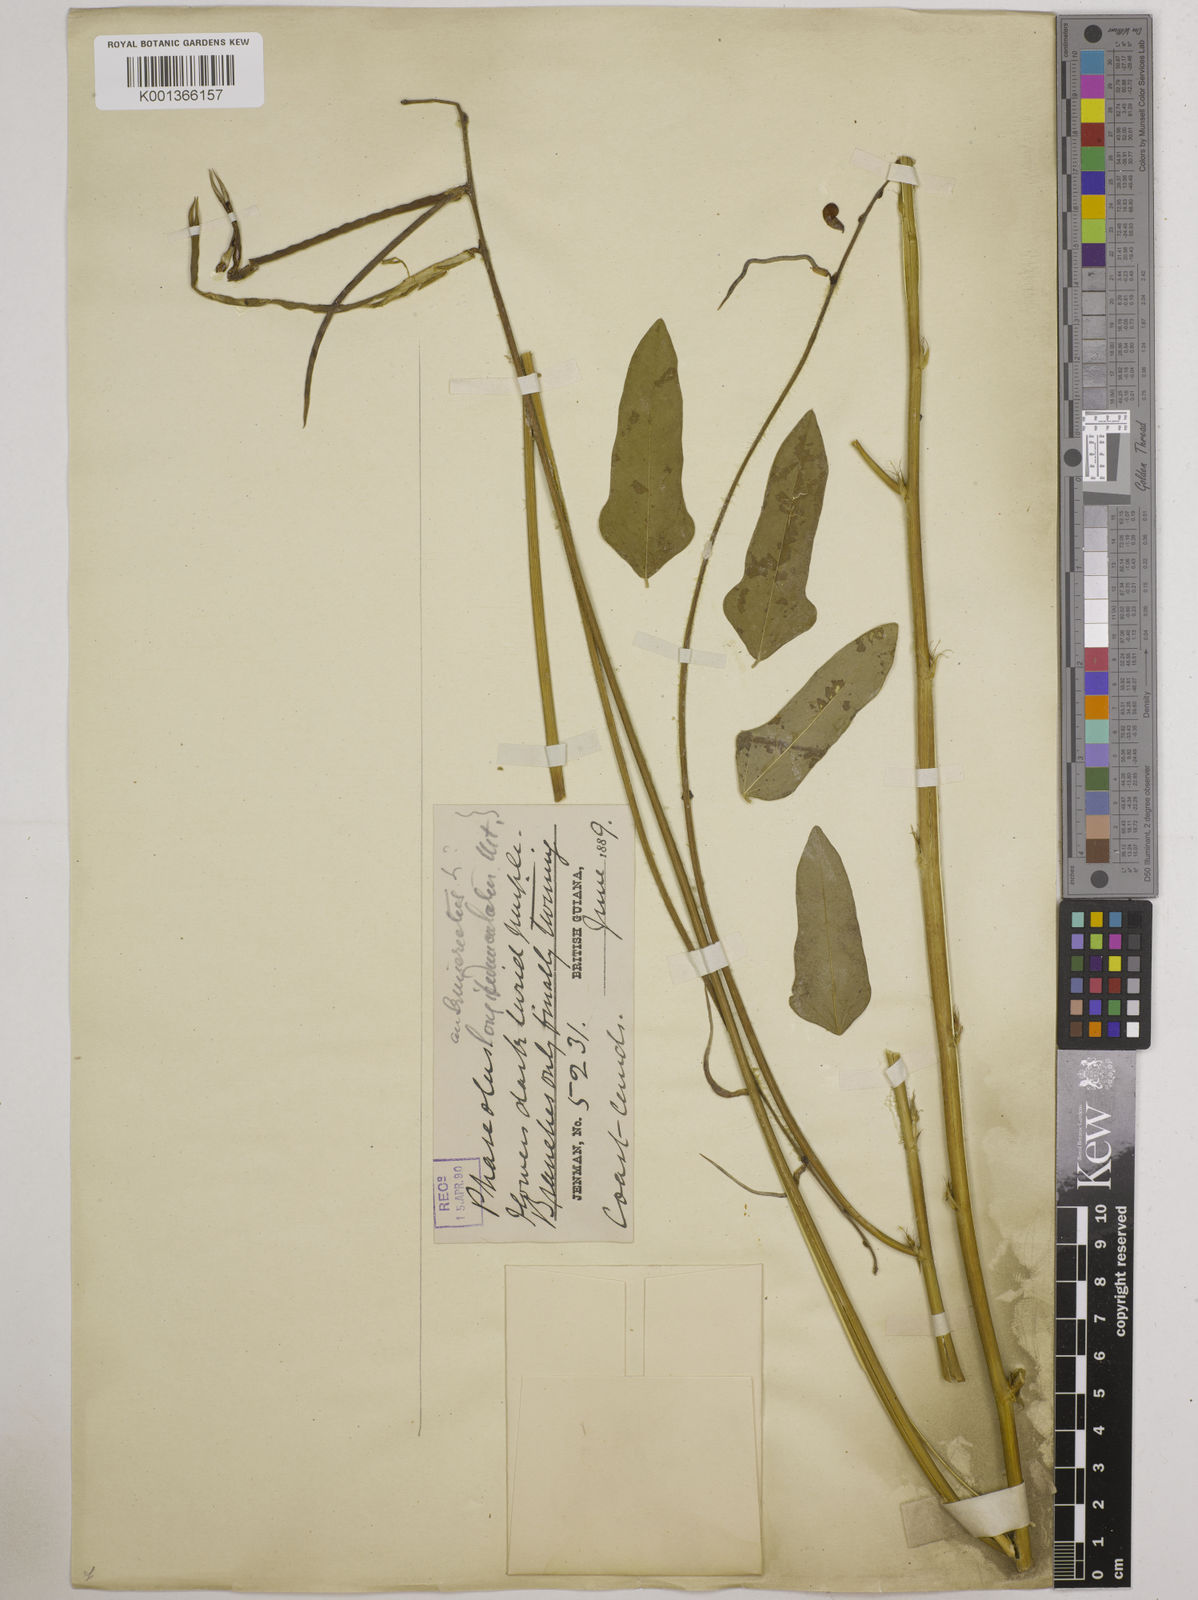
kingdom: Plantae
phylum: Tracheophyta
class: Magnoliopsida
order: Fabales
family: Fabaceae
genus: Macroptilium
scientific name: Macroptilium lathyroides
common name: Wild bushbean
